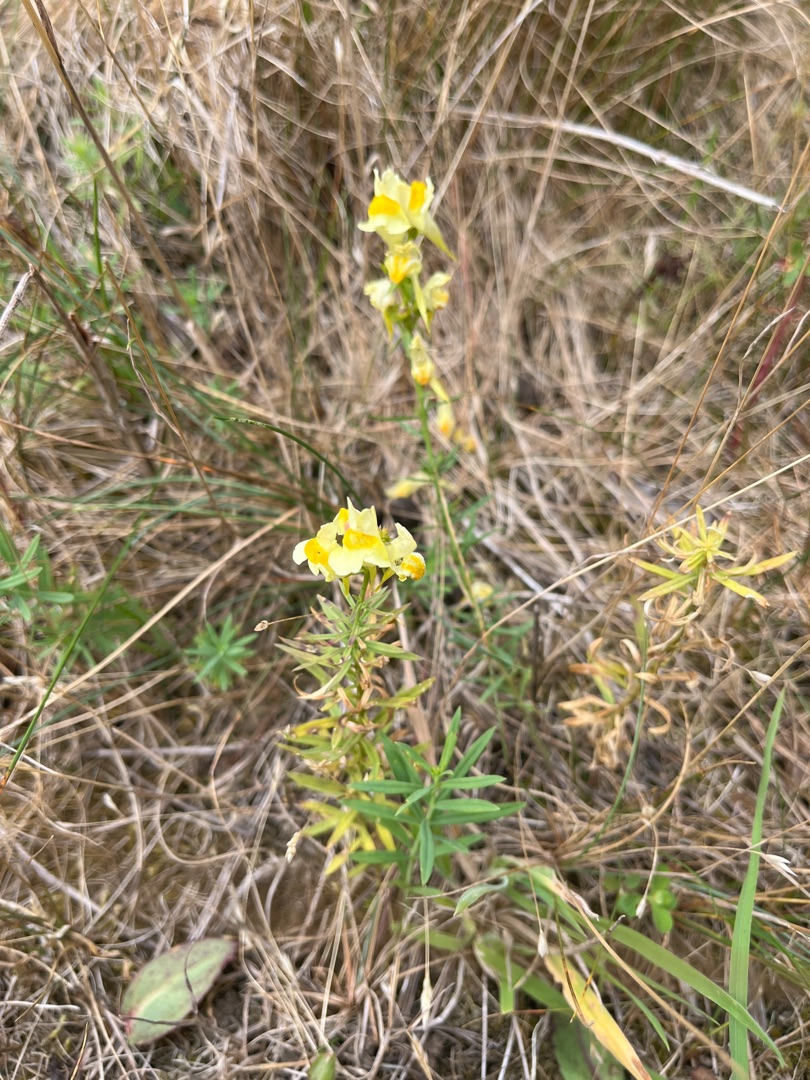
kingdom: Plantae
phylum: Tracheophyta
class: Magnoliopsida
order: Lamiales
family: Plantaginaceae
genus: Linaria
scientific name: Linaria vulgaris
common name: Almindelig torskemund
